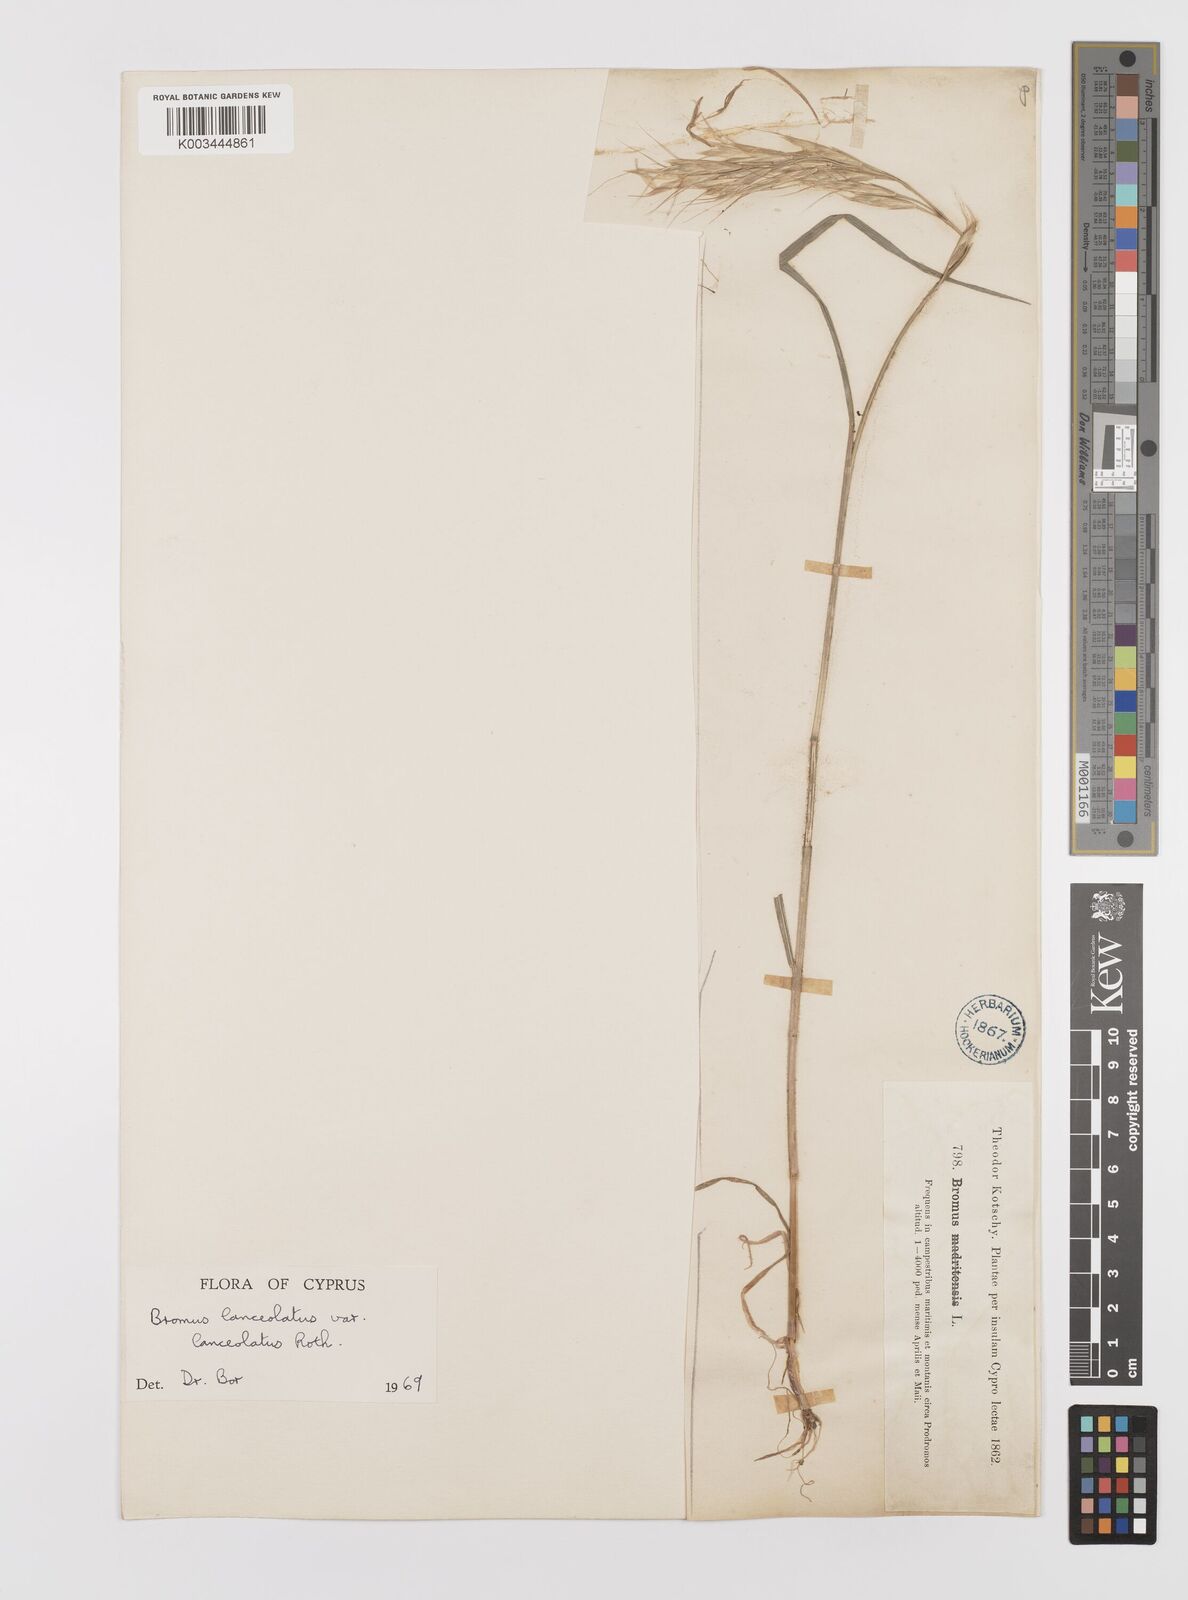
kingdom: Plantae
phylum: Tracheophyta
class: Liliopsida
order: Poales
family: Poaceae
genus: Bromus
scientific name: Bromus lanceolatus
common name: Mediterranean brome
